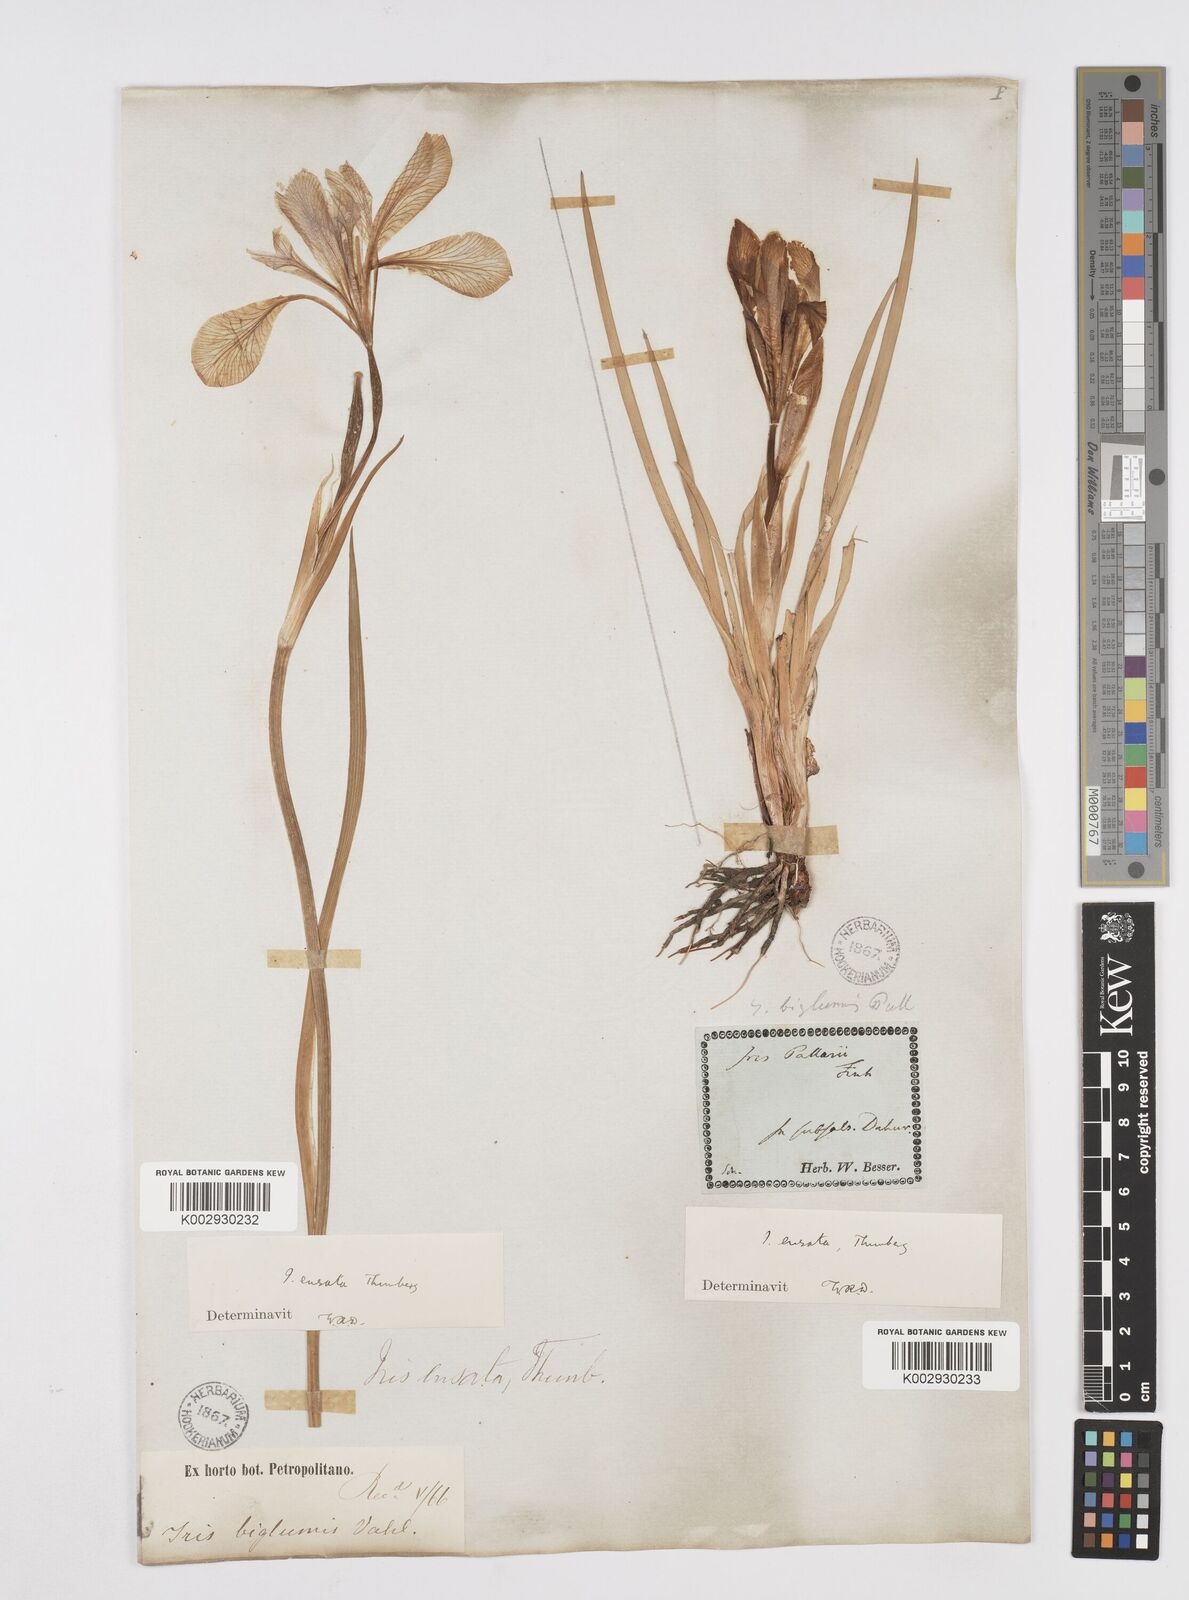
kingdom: Plantae
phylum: Tracheophyta
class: Liliopsida
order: Asparagales
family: Iridaceae
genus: Iris
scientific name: Iris ensata
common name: Beaked iris
